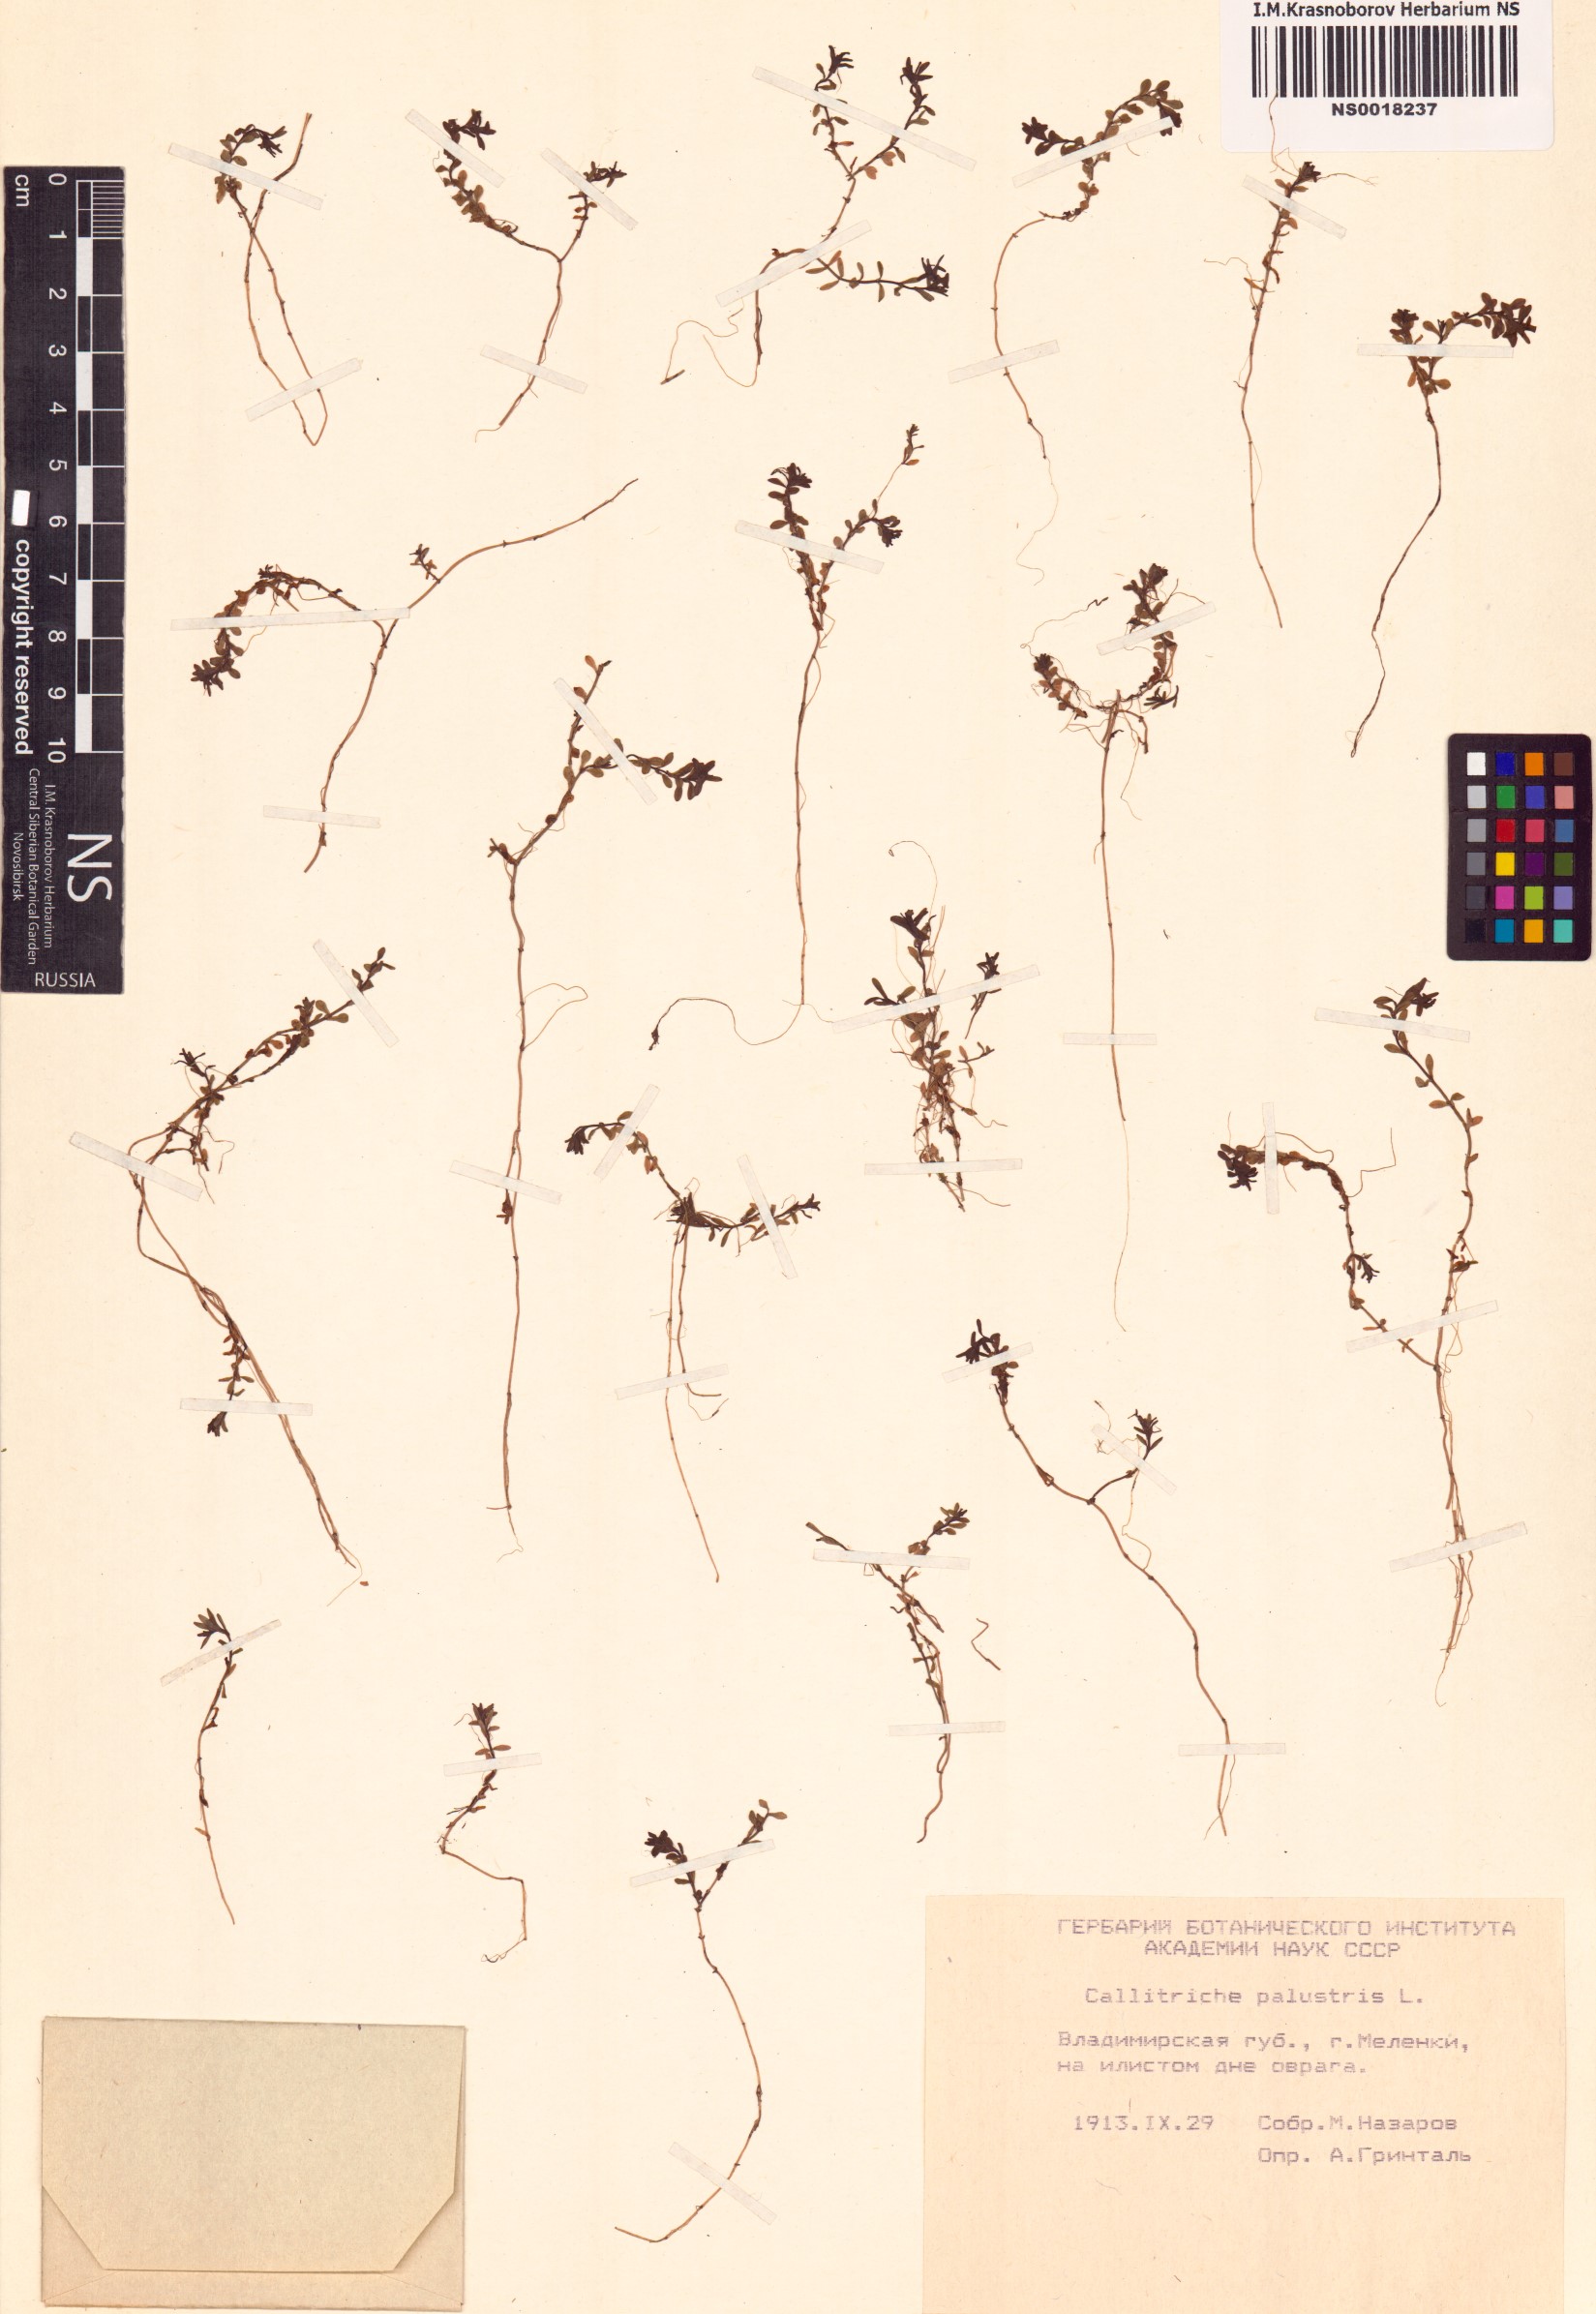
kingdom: Plantae
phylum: Tracheophyta
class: Magnoliopsida
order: Lamiales
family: Plantaginaceae
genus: Callitriche
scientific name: Callitriche palustris
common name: Spring water-starwort
